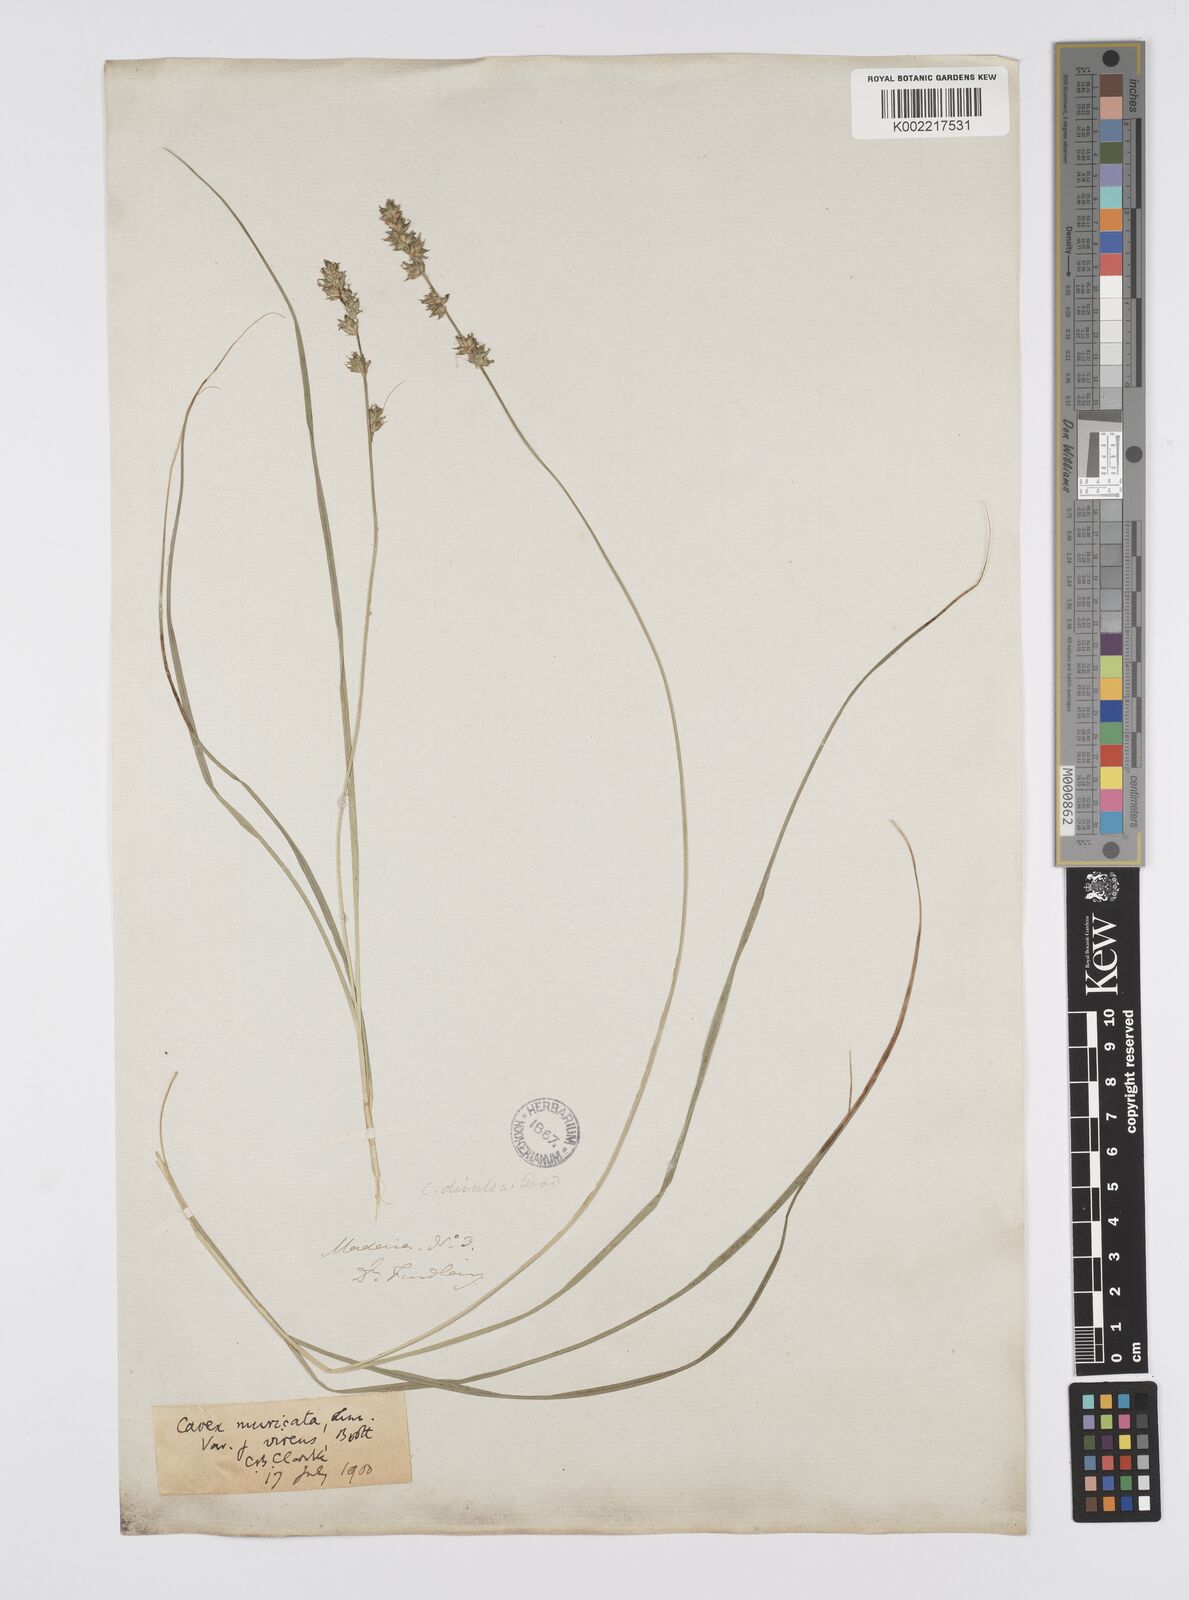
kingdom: Plantae
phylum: Tracheophyta
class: Liliopsida
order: Poales
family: Cyperaceae
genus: Carex
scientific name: Carex divulsa
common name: Grassland sedge
